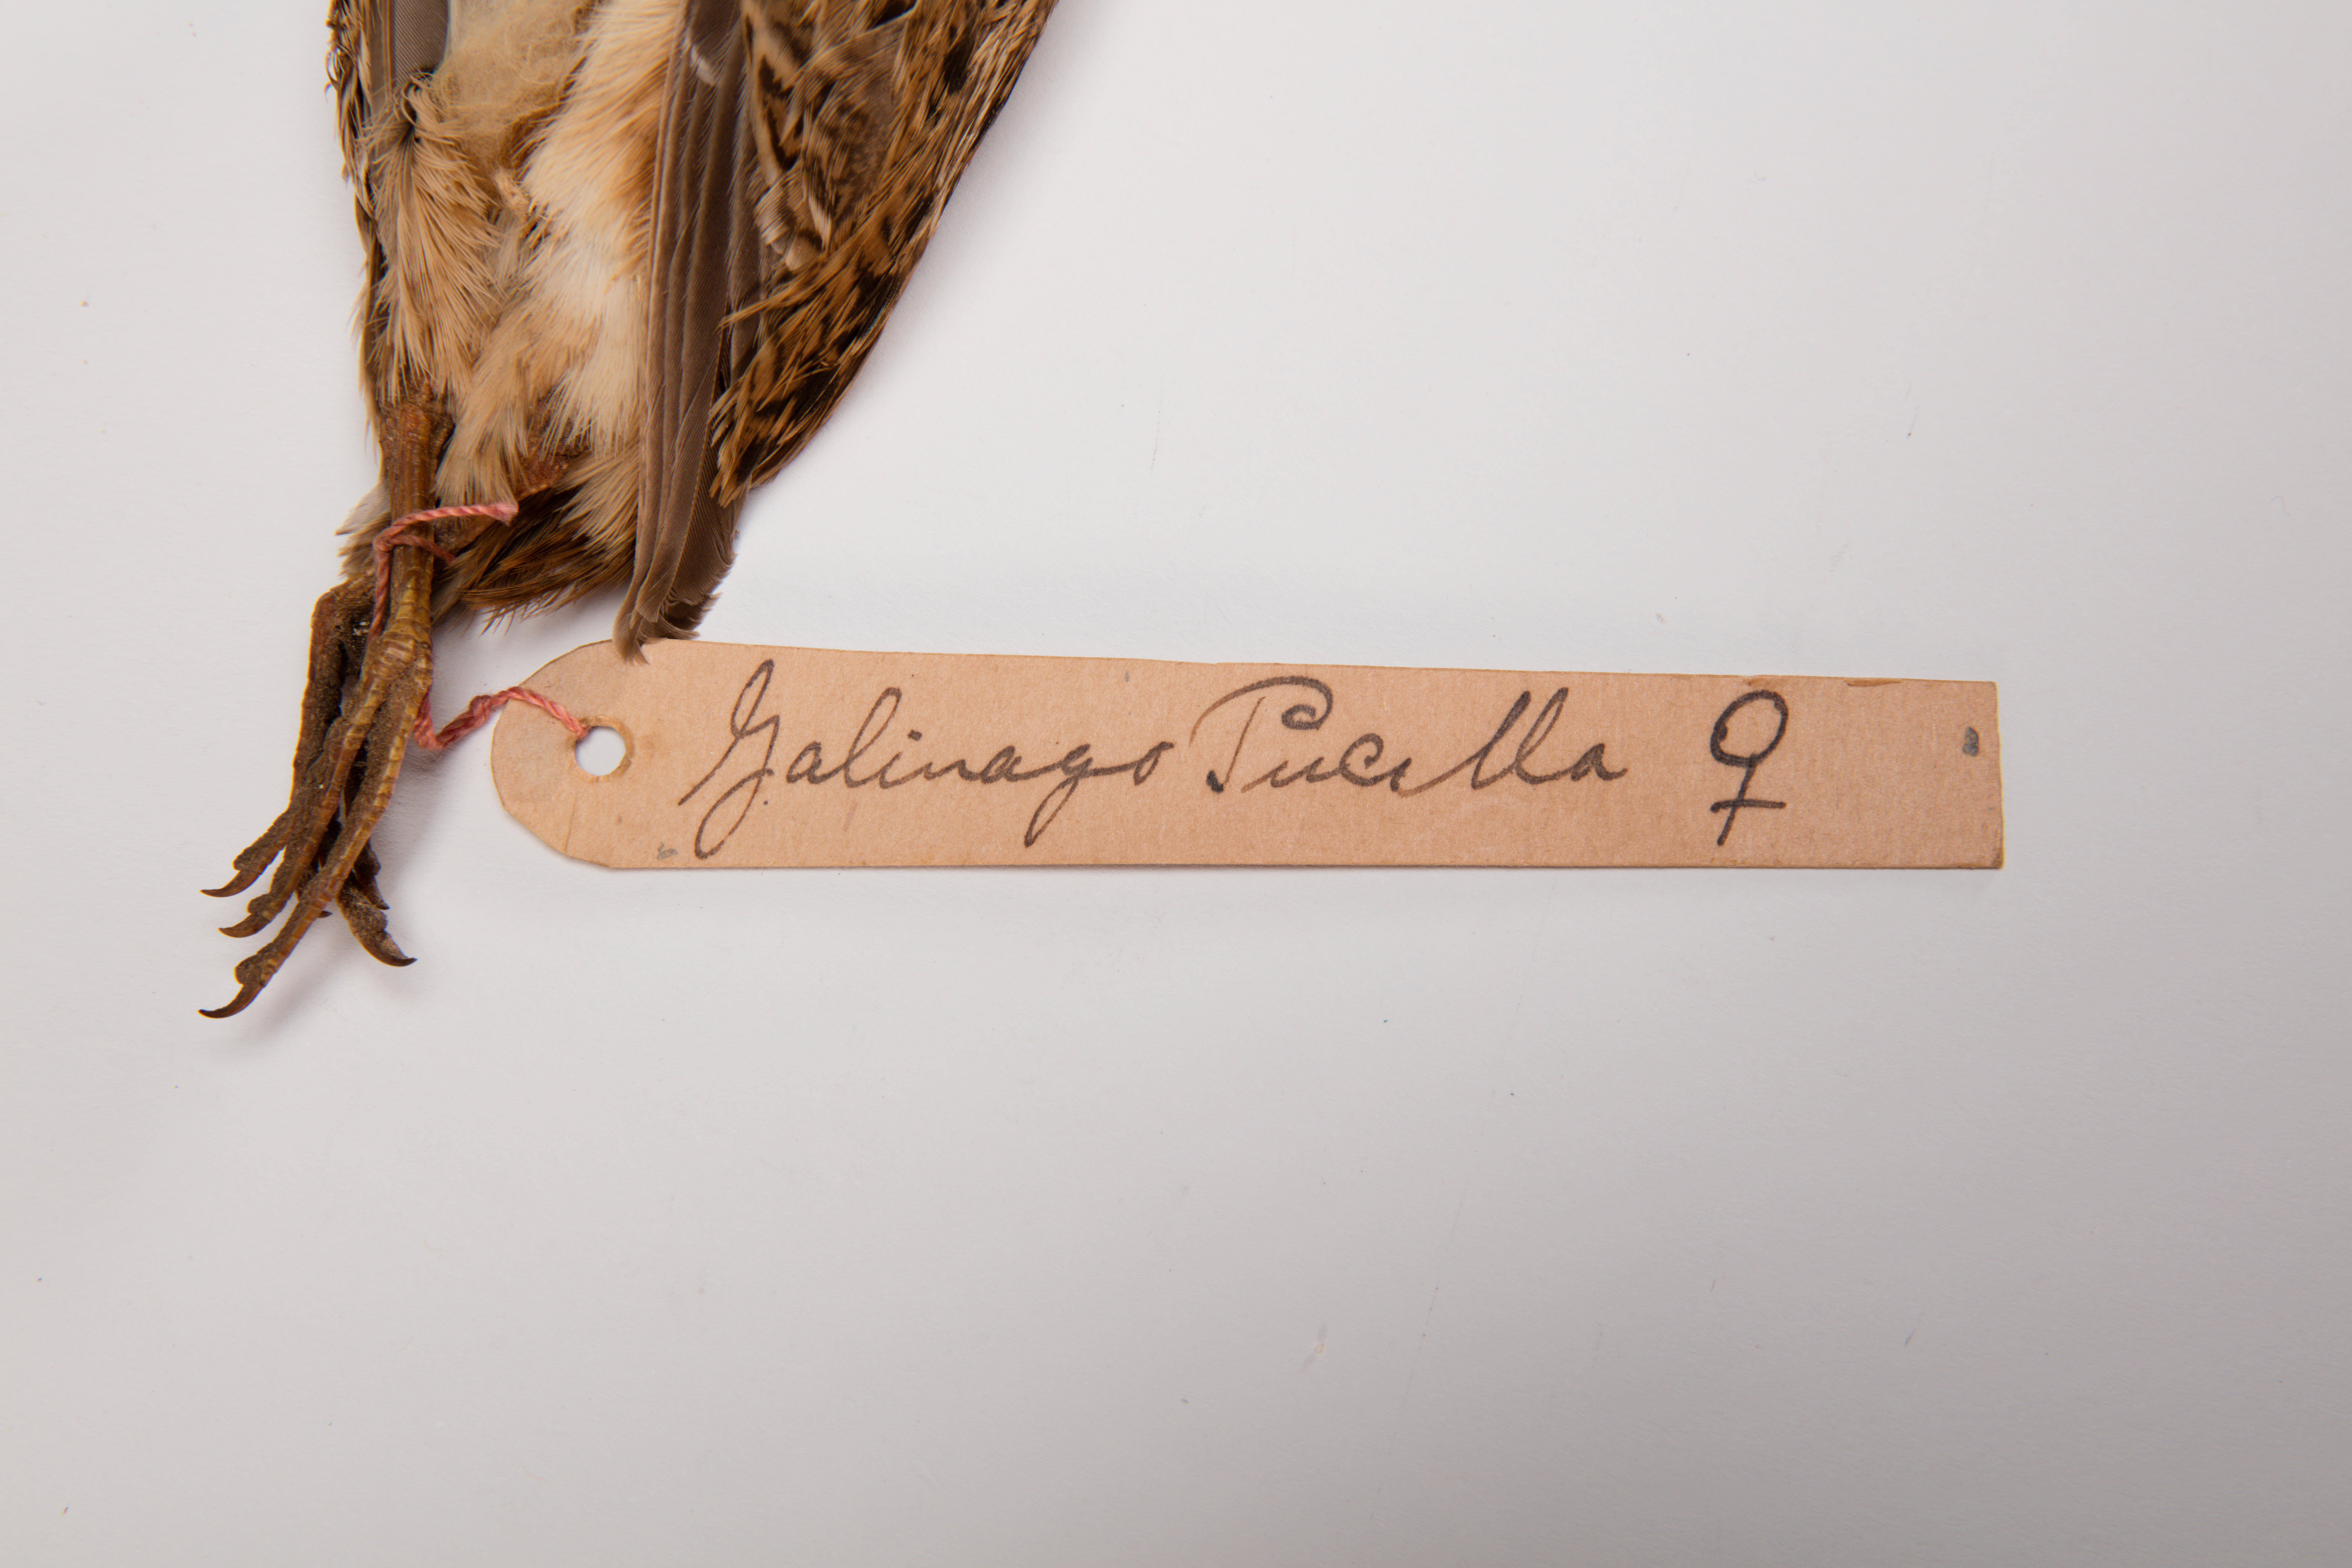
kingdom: Animalia
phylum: Chordata
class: Aves
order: Charadriiformes
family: Scolopacidae
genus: Coenocorypha
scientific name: Coenocorypha pusilla
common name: Chatham snipe
